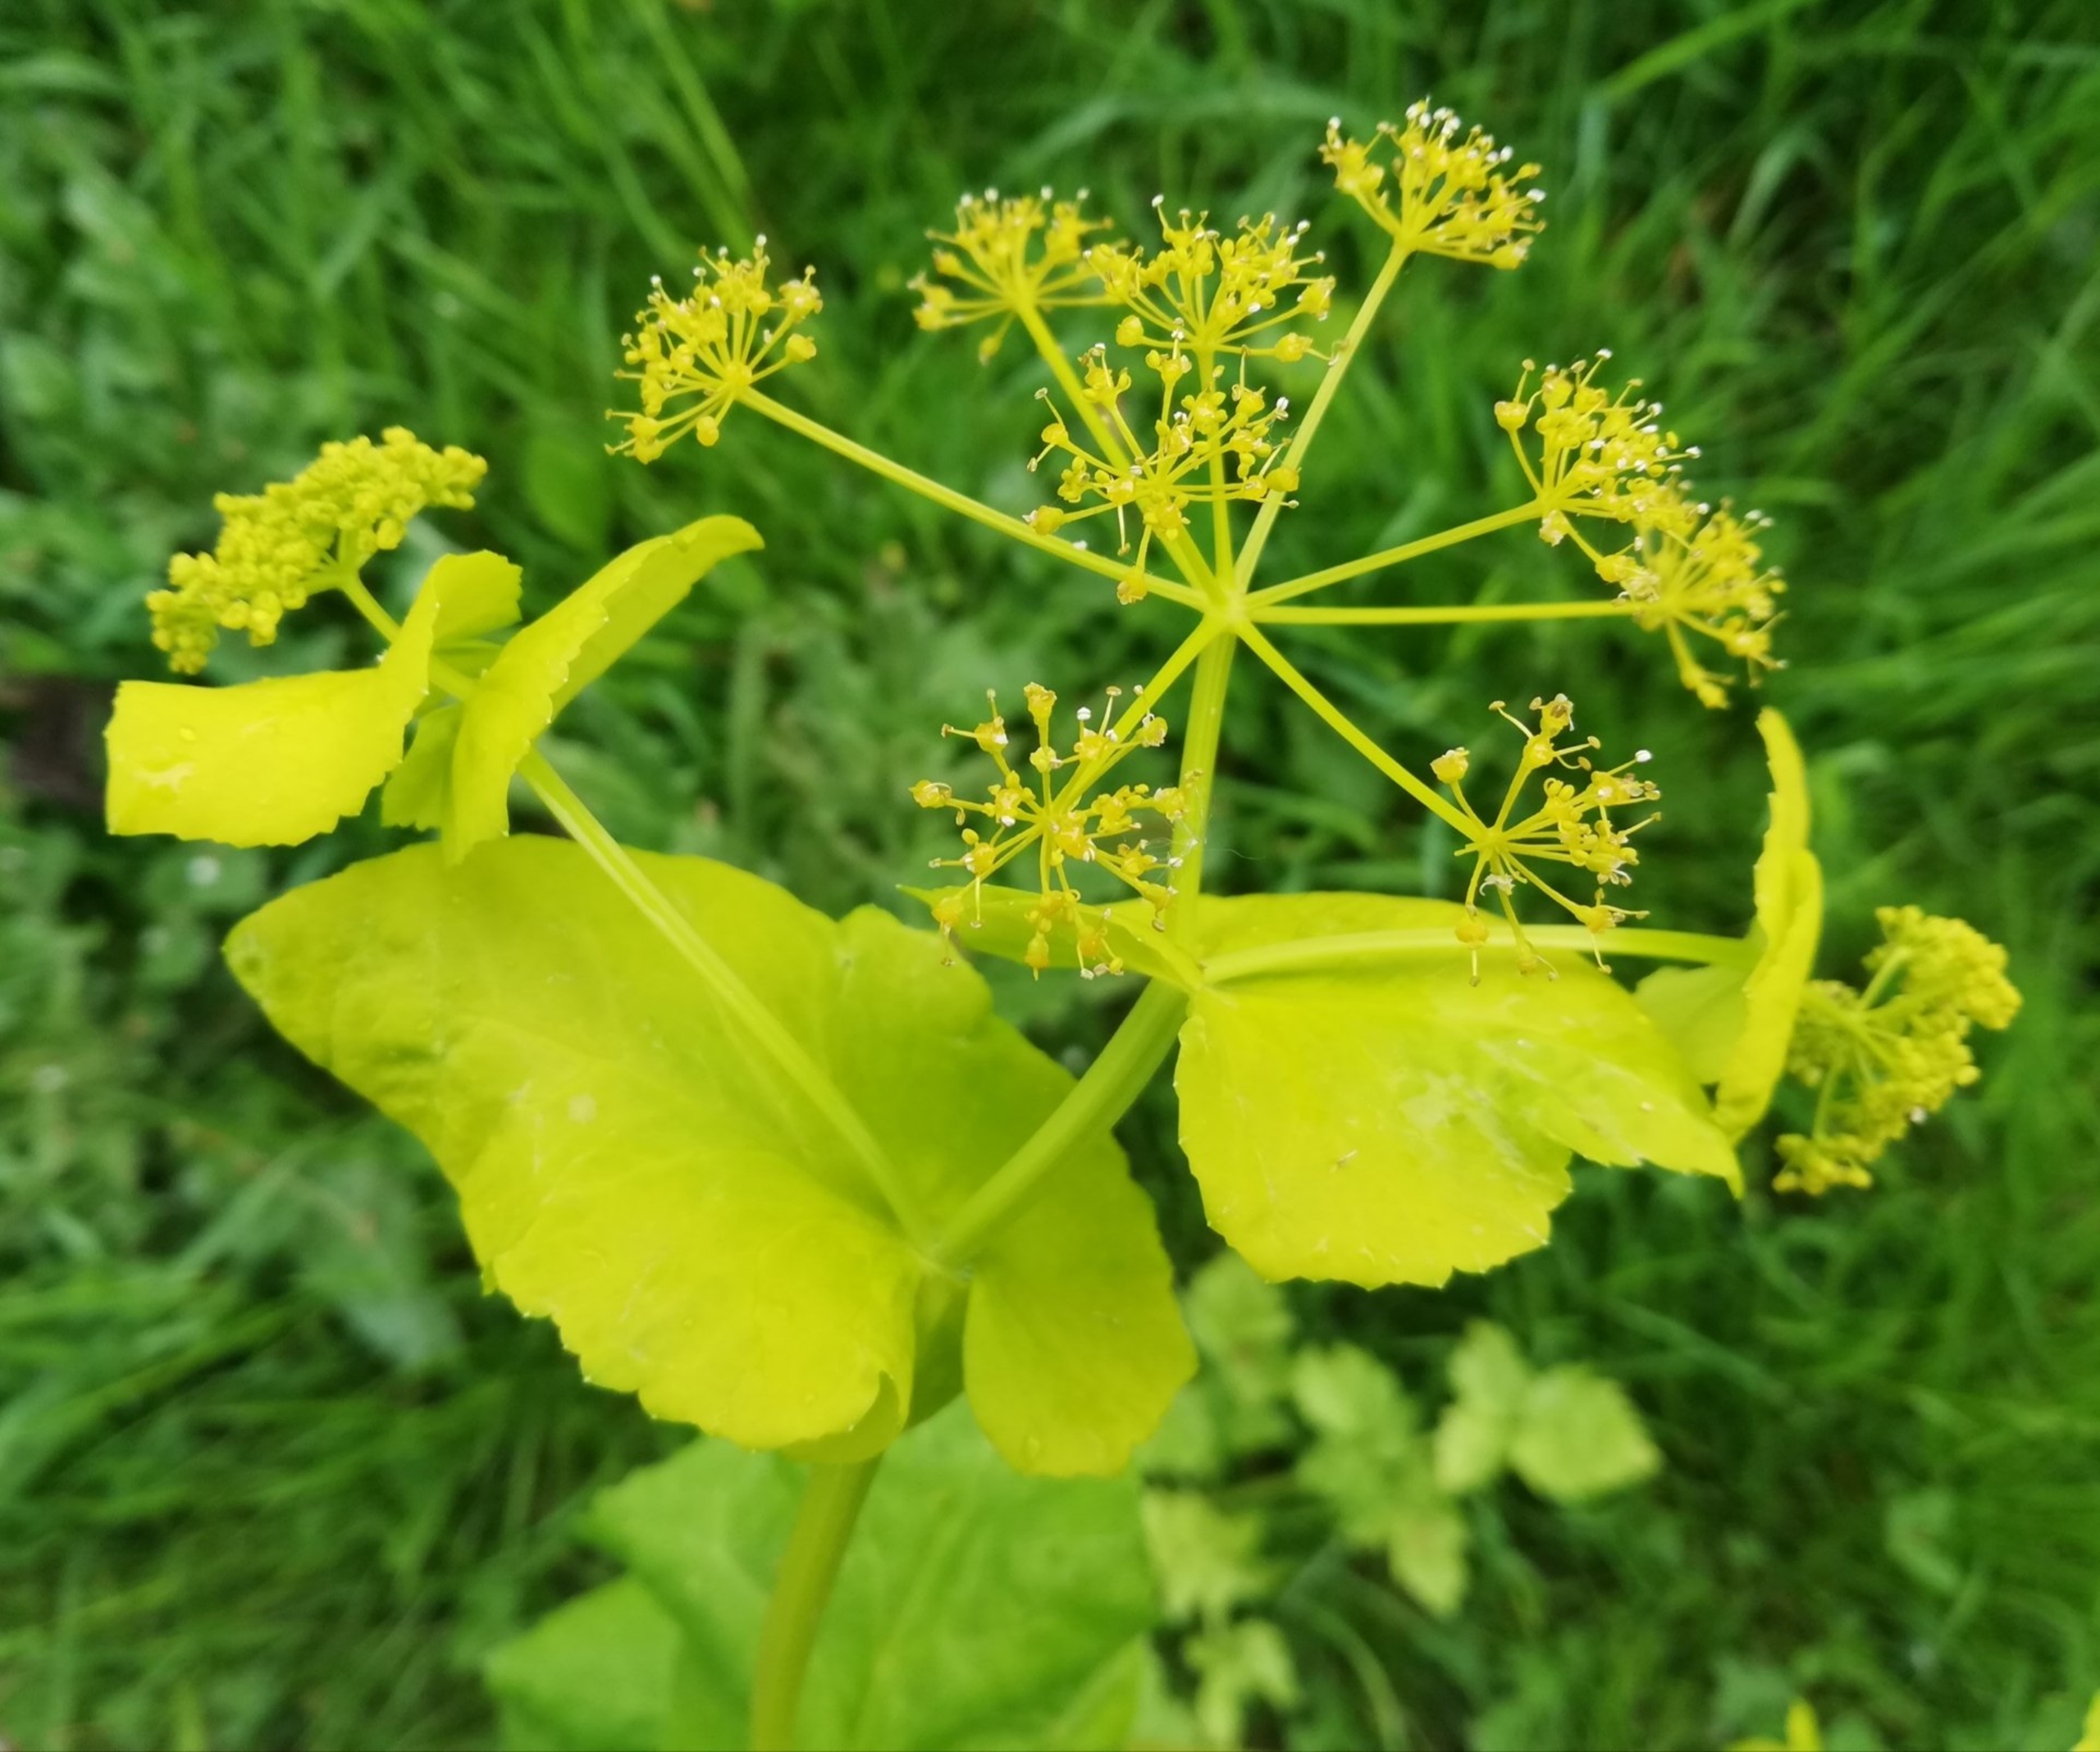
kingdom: Plantae
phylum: Tracheophyta
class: Magnoliopsida
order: Apiales
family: Apiaceae
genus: Smyrnium
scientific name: Smyrnium perfoliatum
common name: Lundgylden
